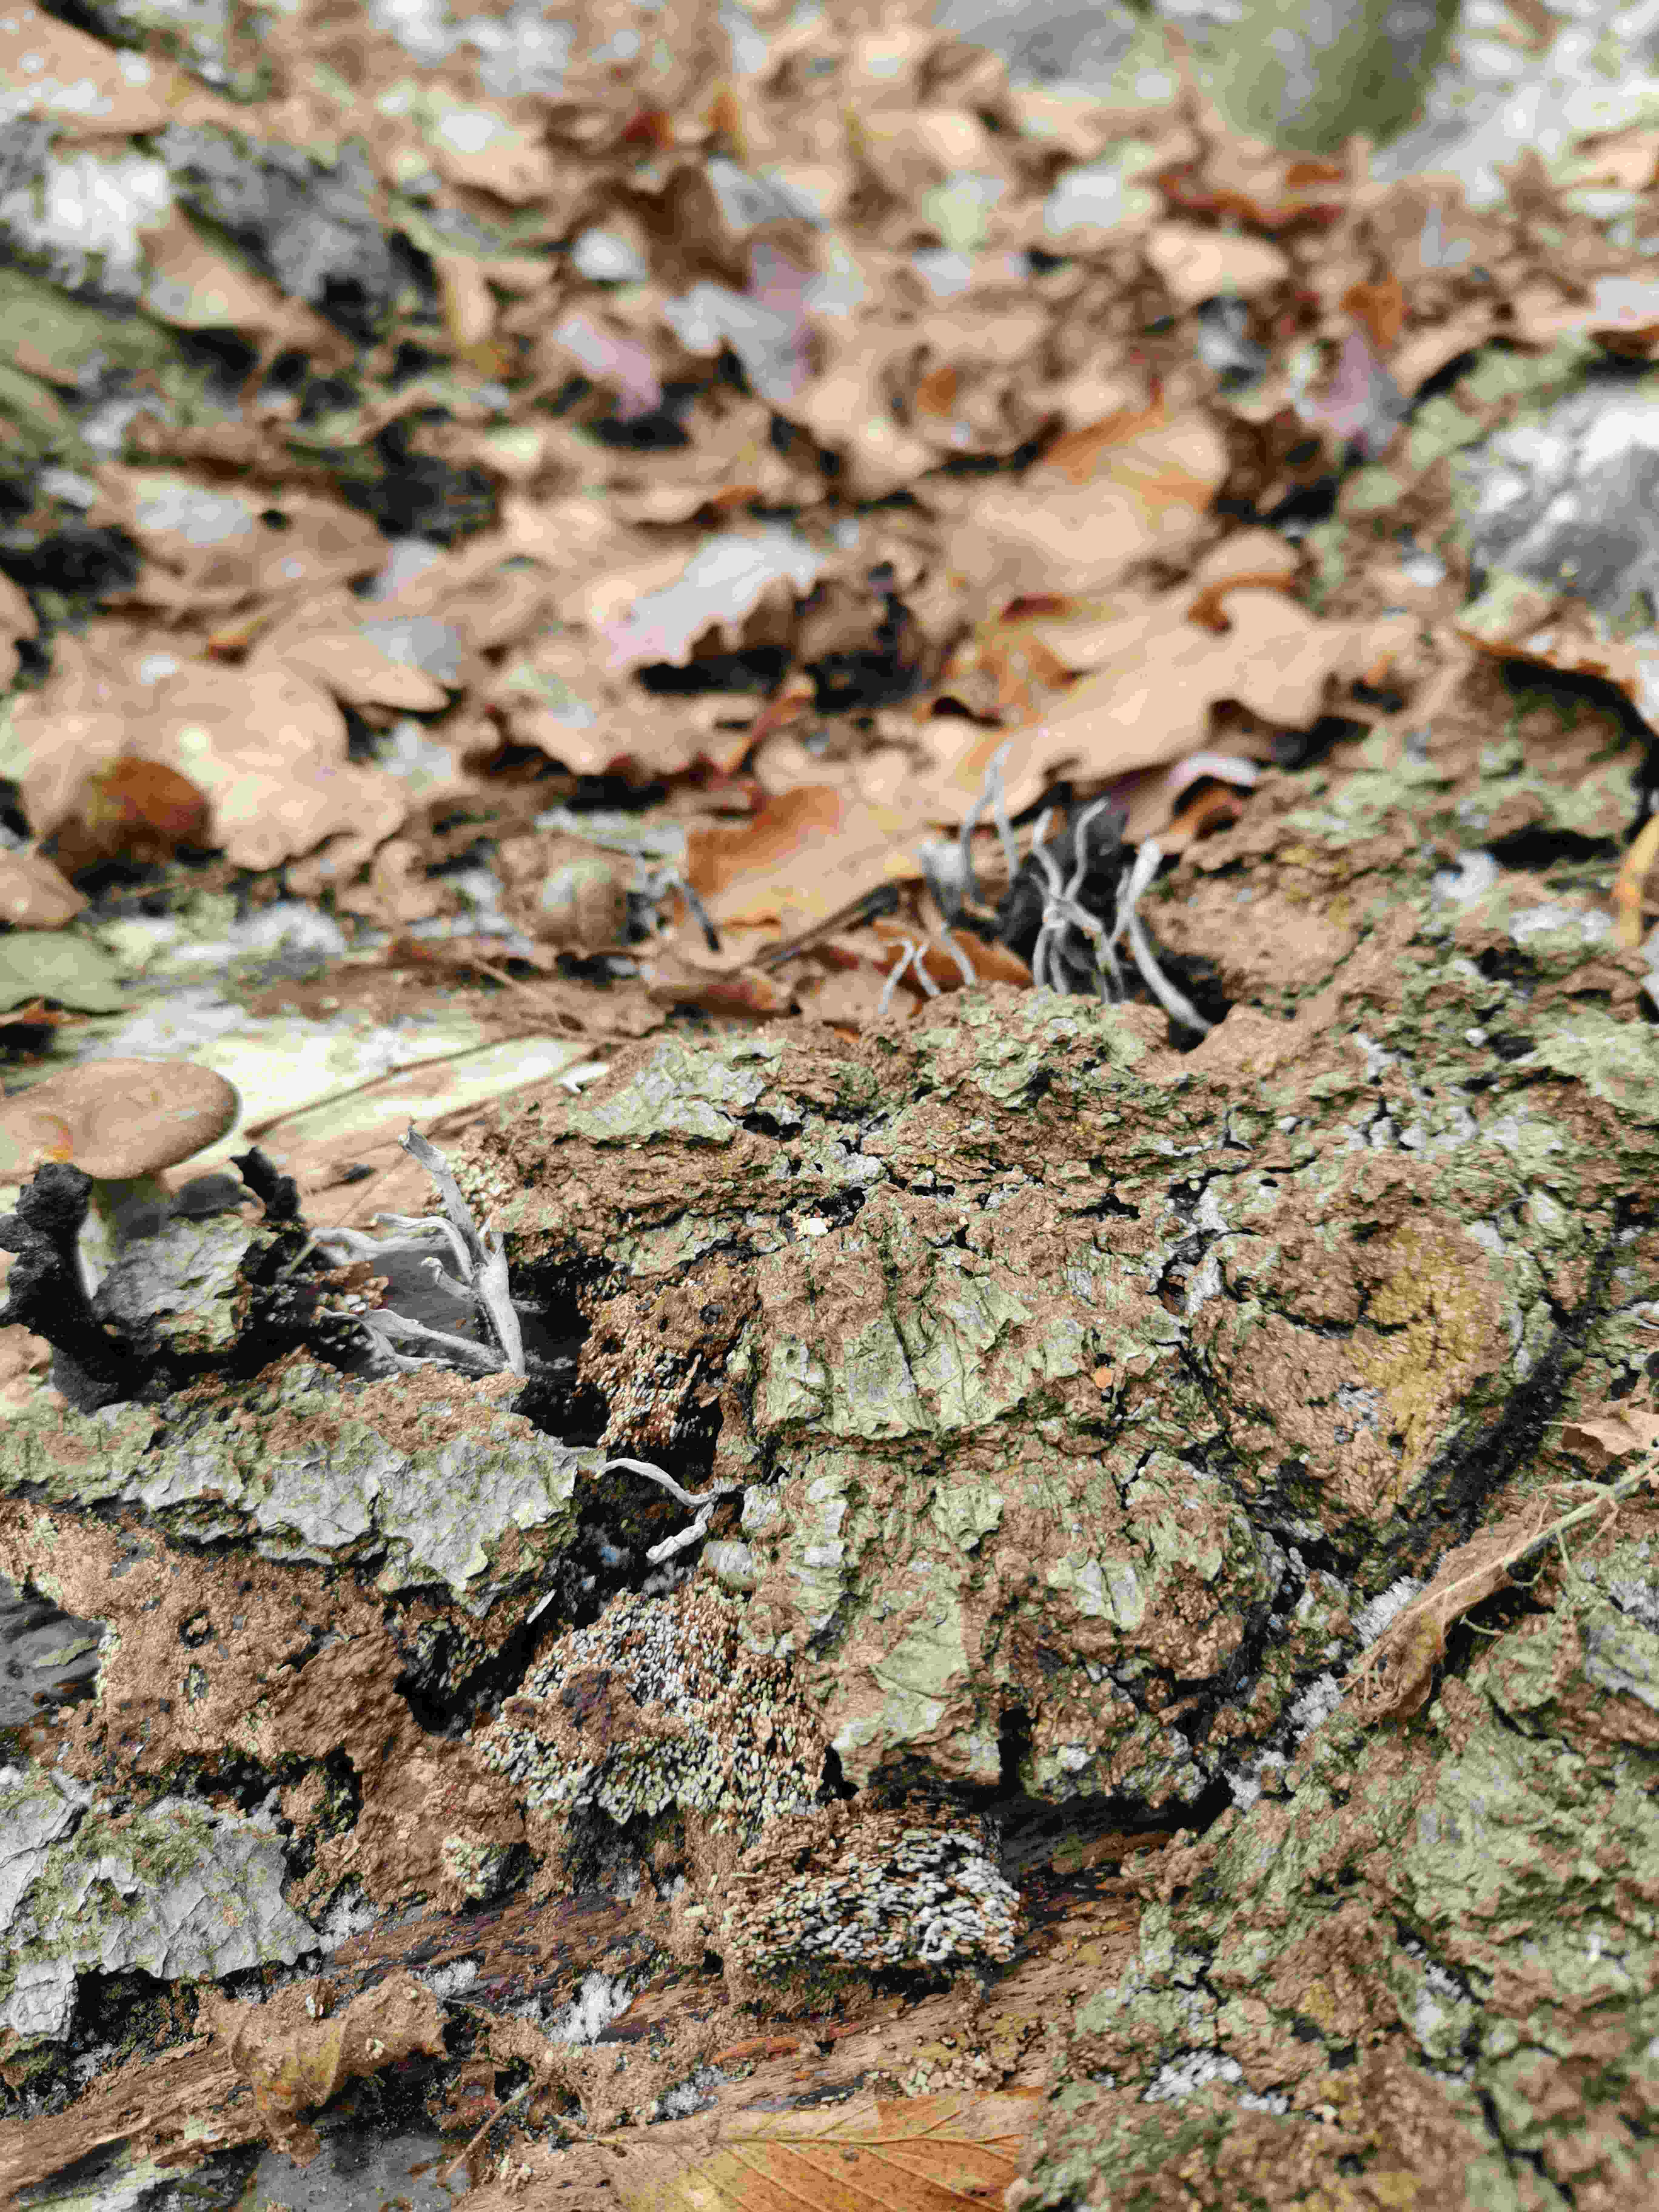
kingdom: Fungi
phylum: Ascomycota
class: Sordariomycetes
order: Xylariales
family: Xylariaceae
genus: Xylaria
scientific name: Xylaria hypoxylon
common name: grenet stødsvamp
